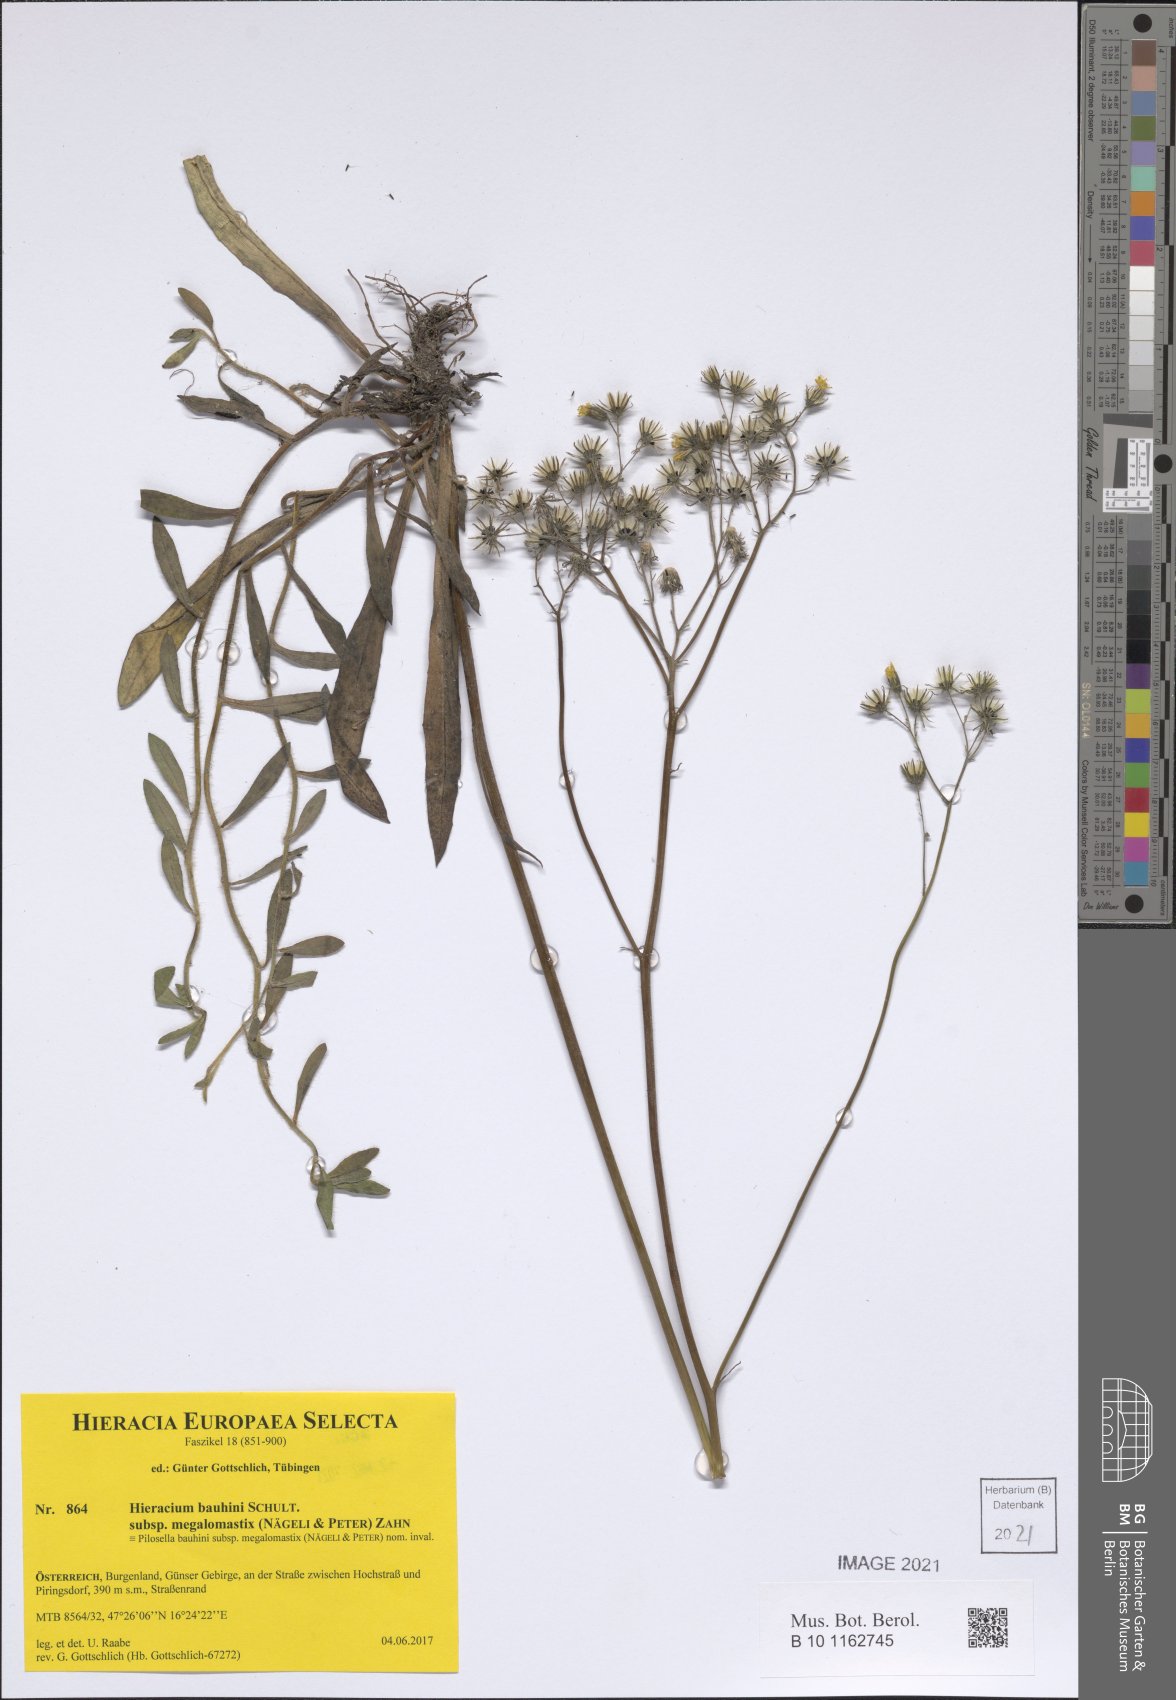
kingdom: Plantae
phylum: Tracheophyta
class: Magnoliopsida
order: Asterales
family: Asteraceae
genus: Pilosella
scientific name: Pilosella bauhini
